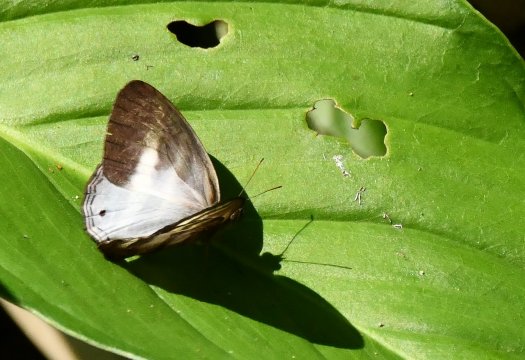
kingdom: Animalia
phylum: Arthropoda
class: Insecta
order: Lepidoptera
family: Nymphalidae
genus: Pareuptychia
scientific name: Pareuptychia hesione
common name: White Satyr
